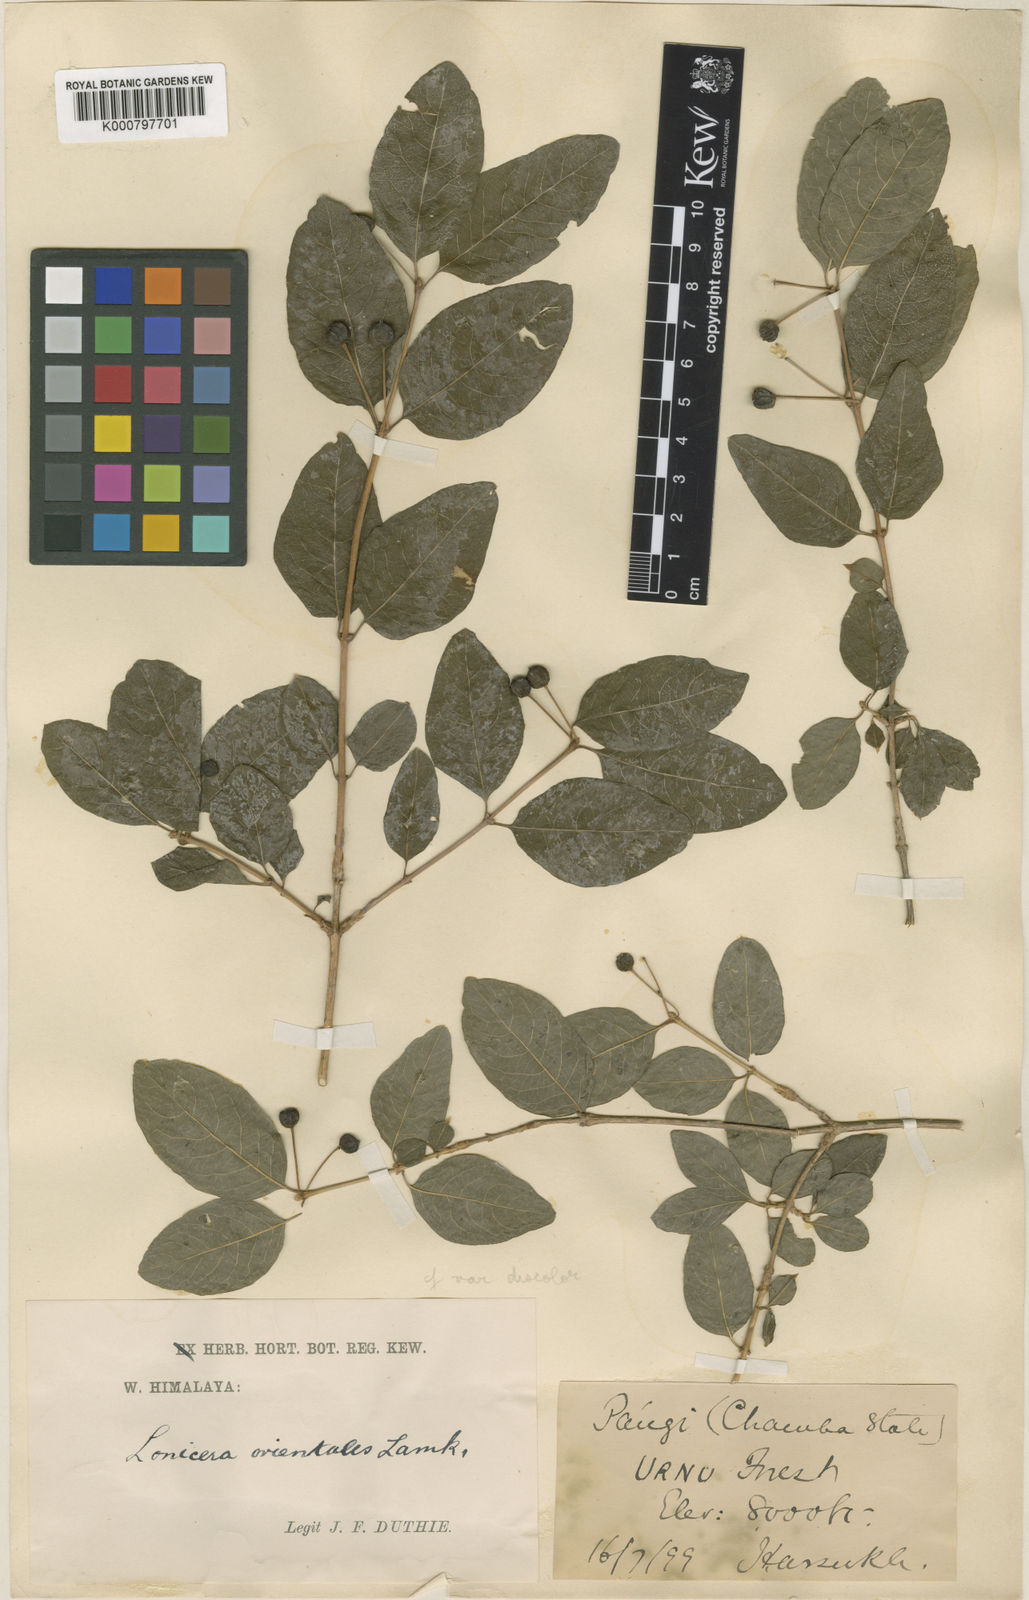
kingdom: Plantae
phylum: Tracheophyta
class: Magnoliopsida
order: Dipsacales
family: Caprifoliaceae
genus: Lonicera
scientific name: Lonicera caucasica
